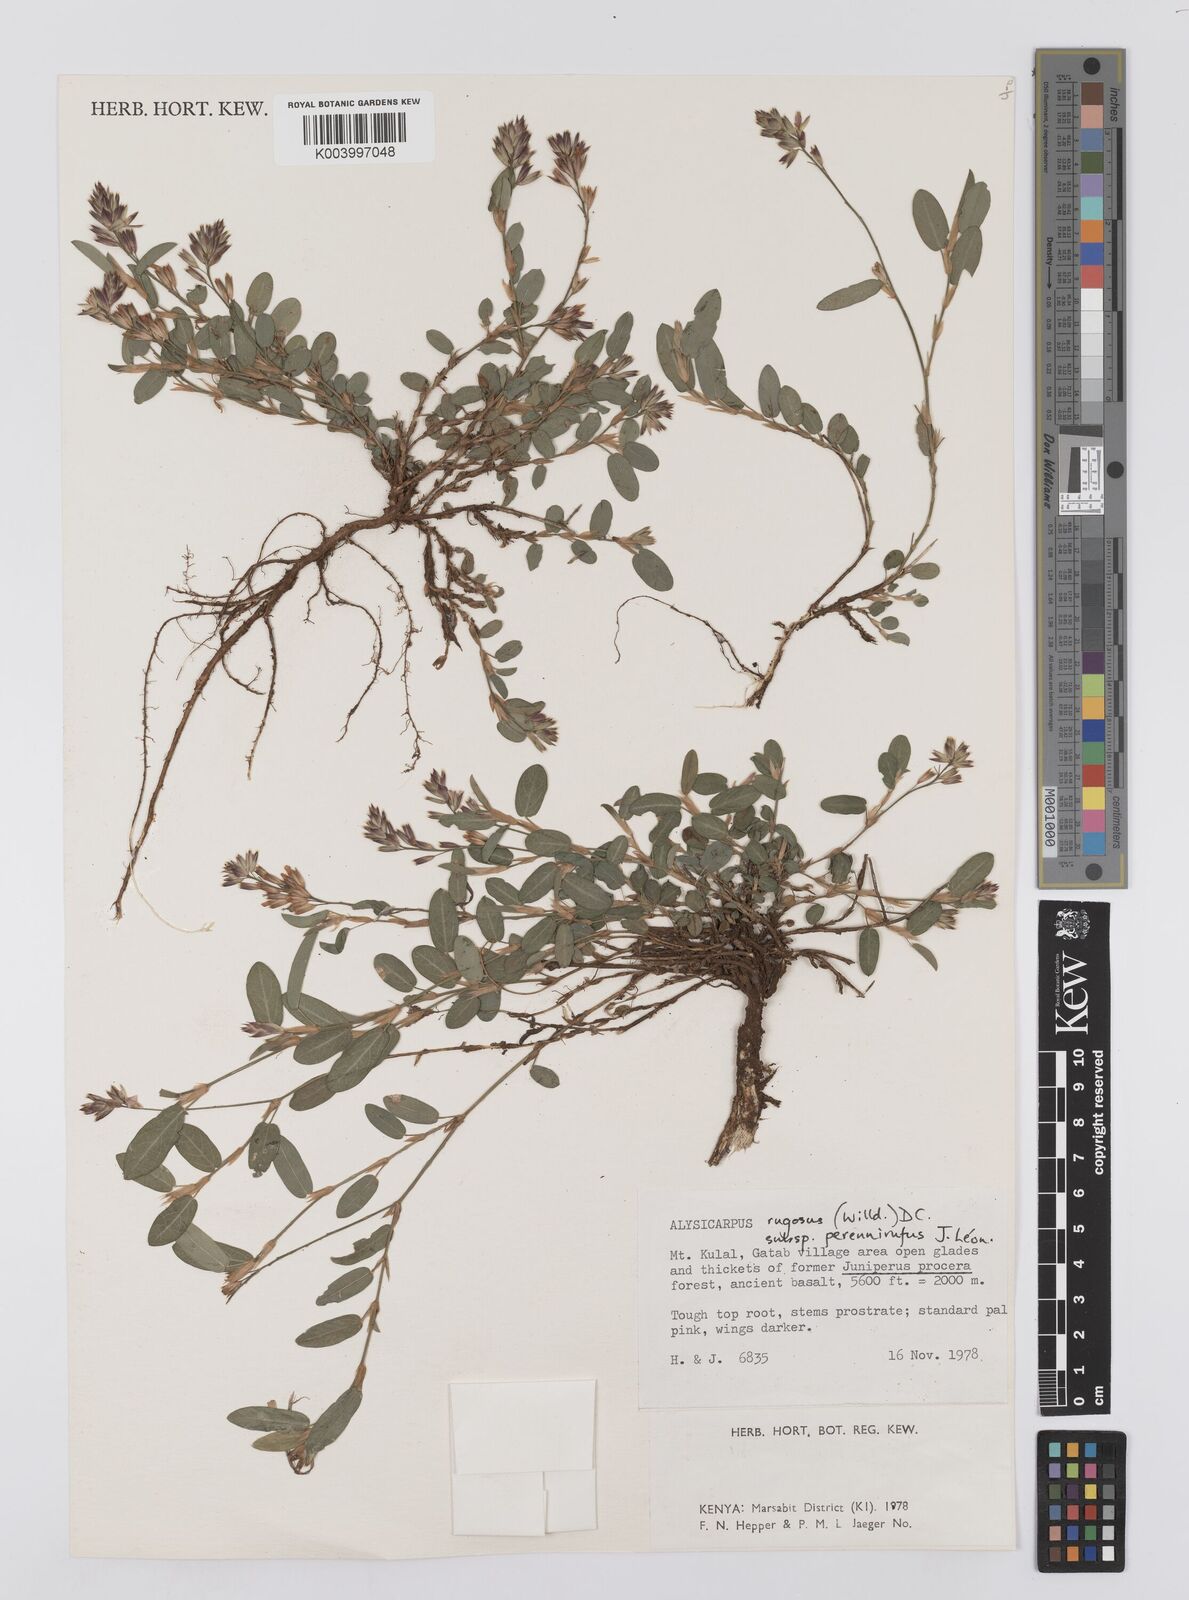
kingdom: Plantae
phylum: Tracheophyta
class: Magnoliopsida
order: Fabales
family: Fabaceae
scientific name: Fabaceae
